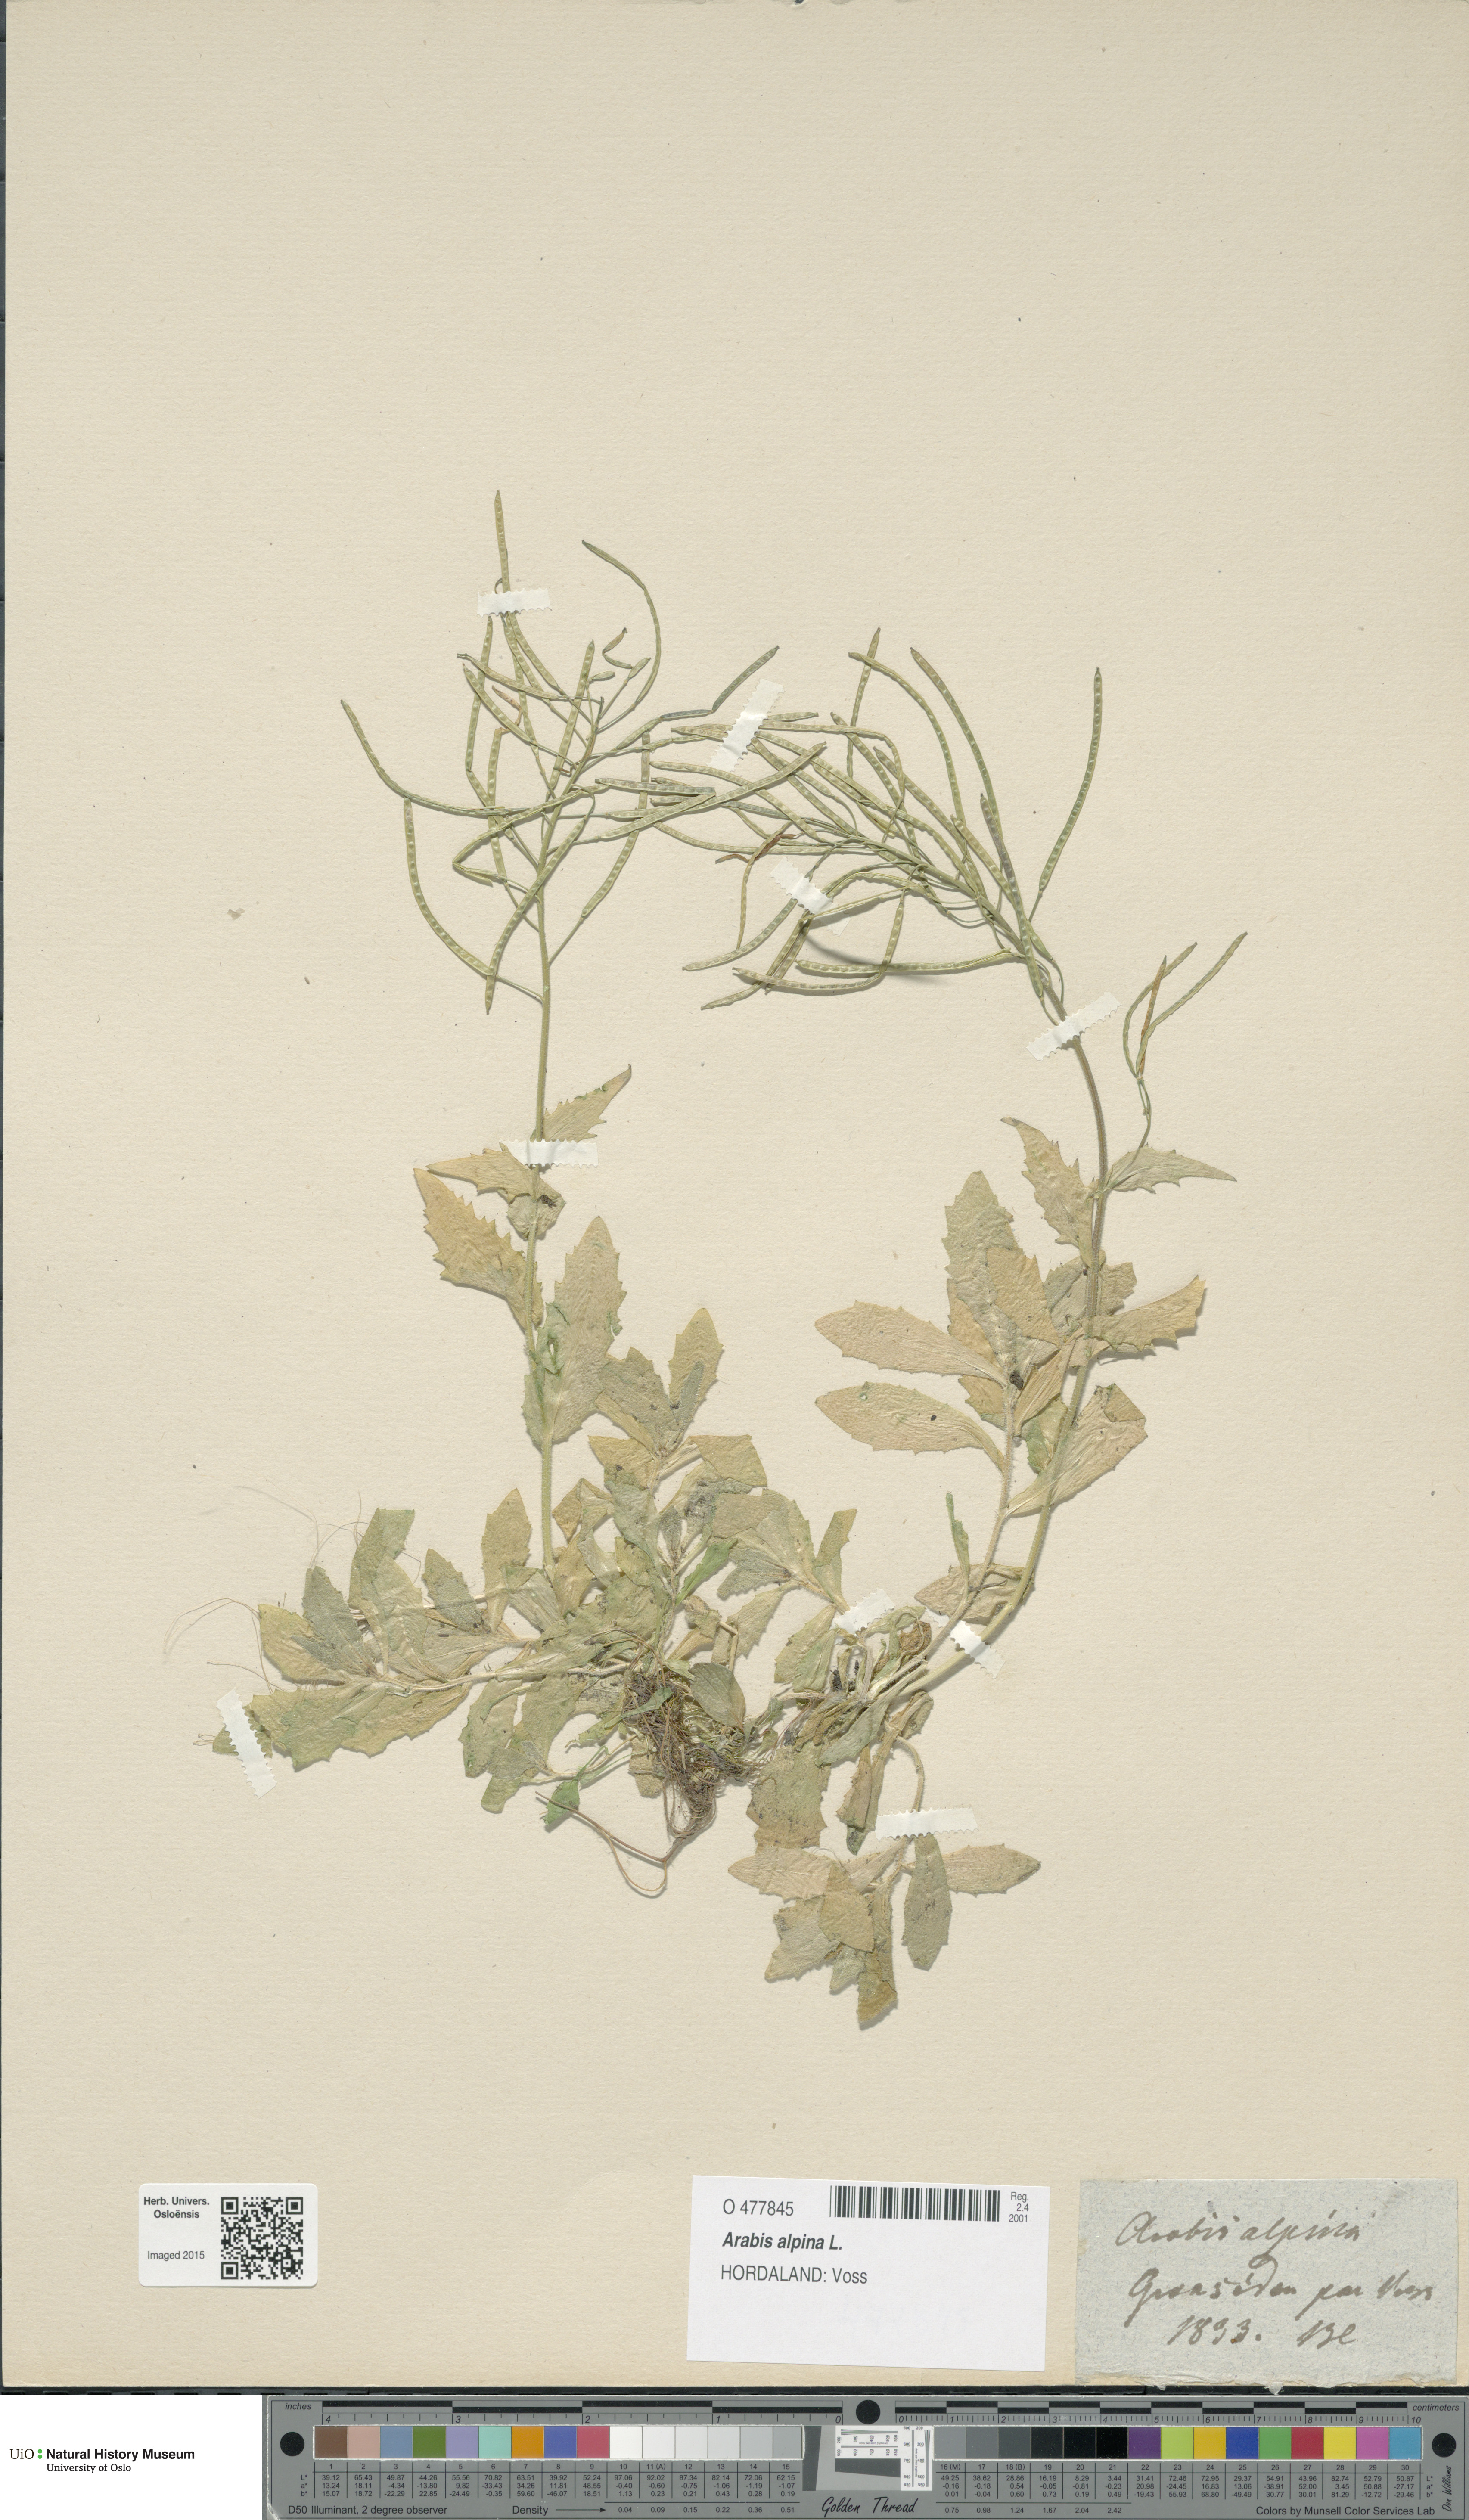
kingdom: Plantae
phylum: Tracheophyta
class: Magnoliopsida
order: Brassicales
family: Brassicaceae
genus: Arabis
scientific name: Arabis alpina
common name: Alpine rock-cress
